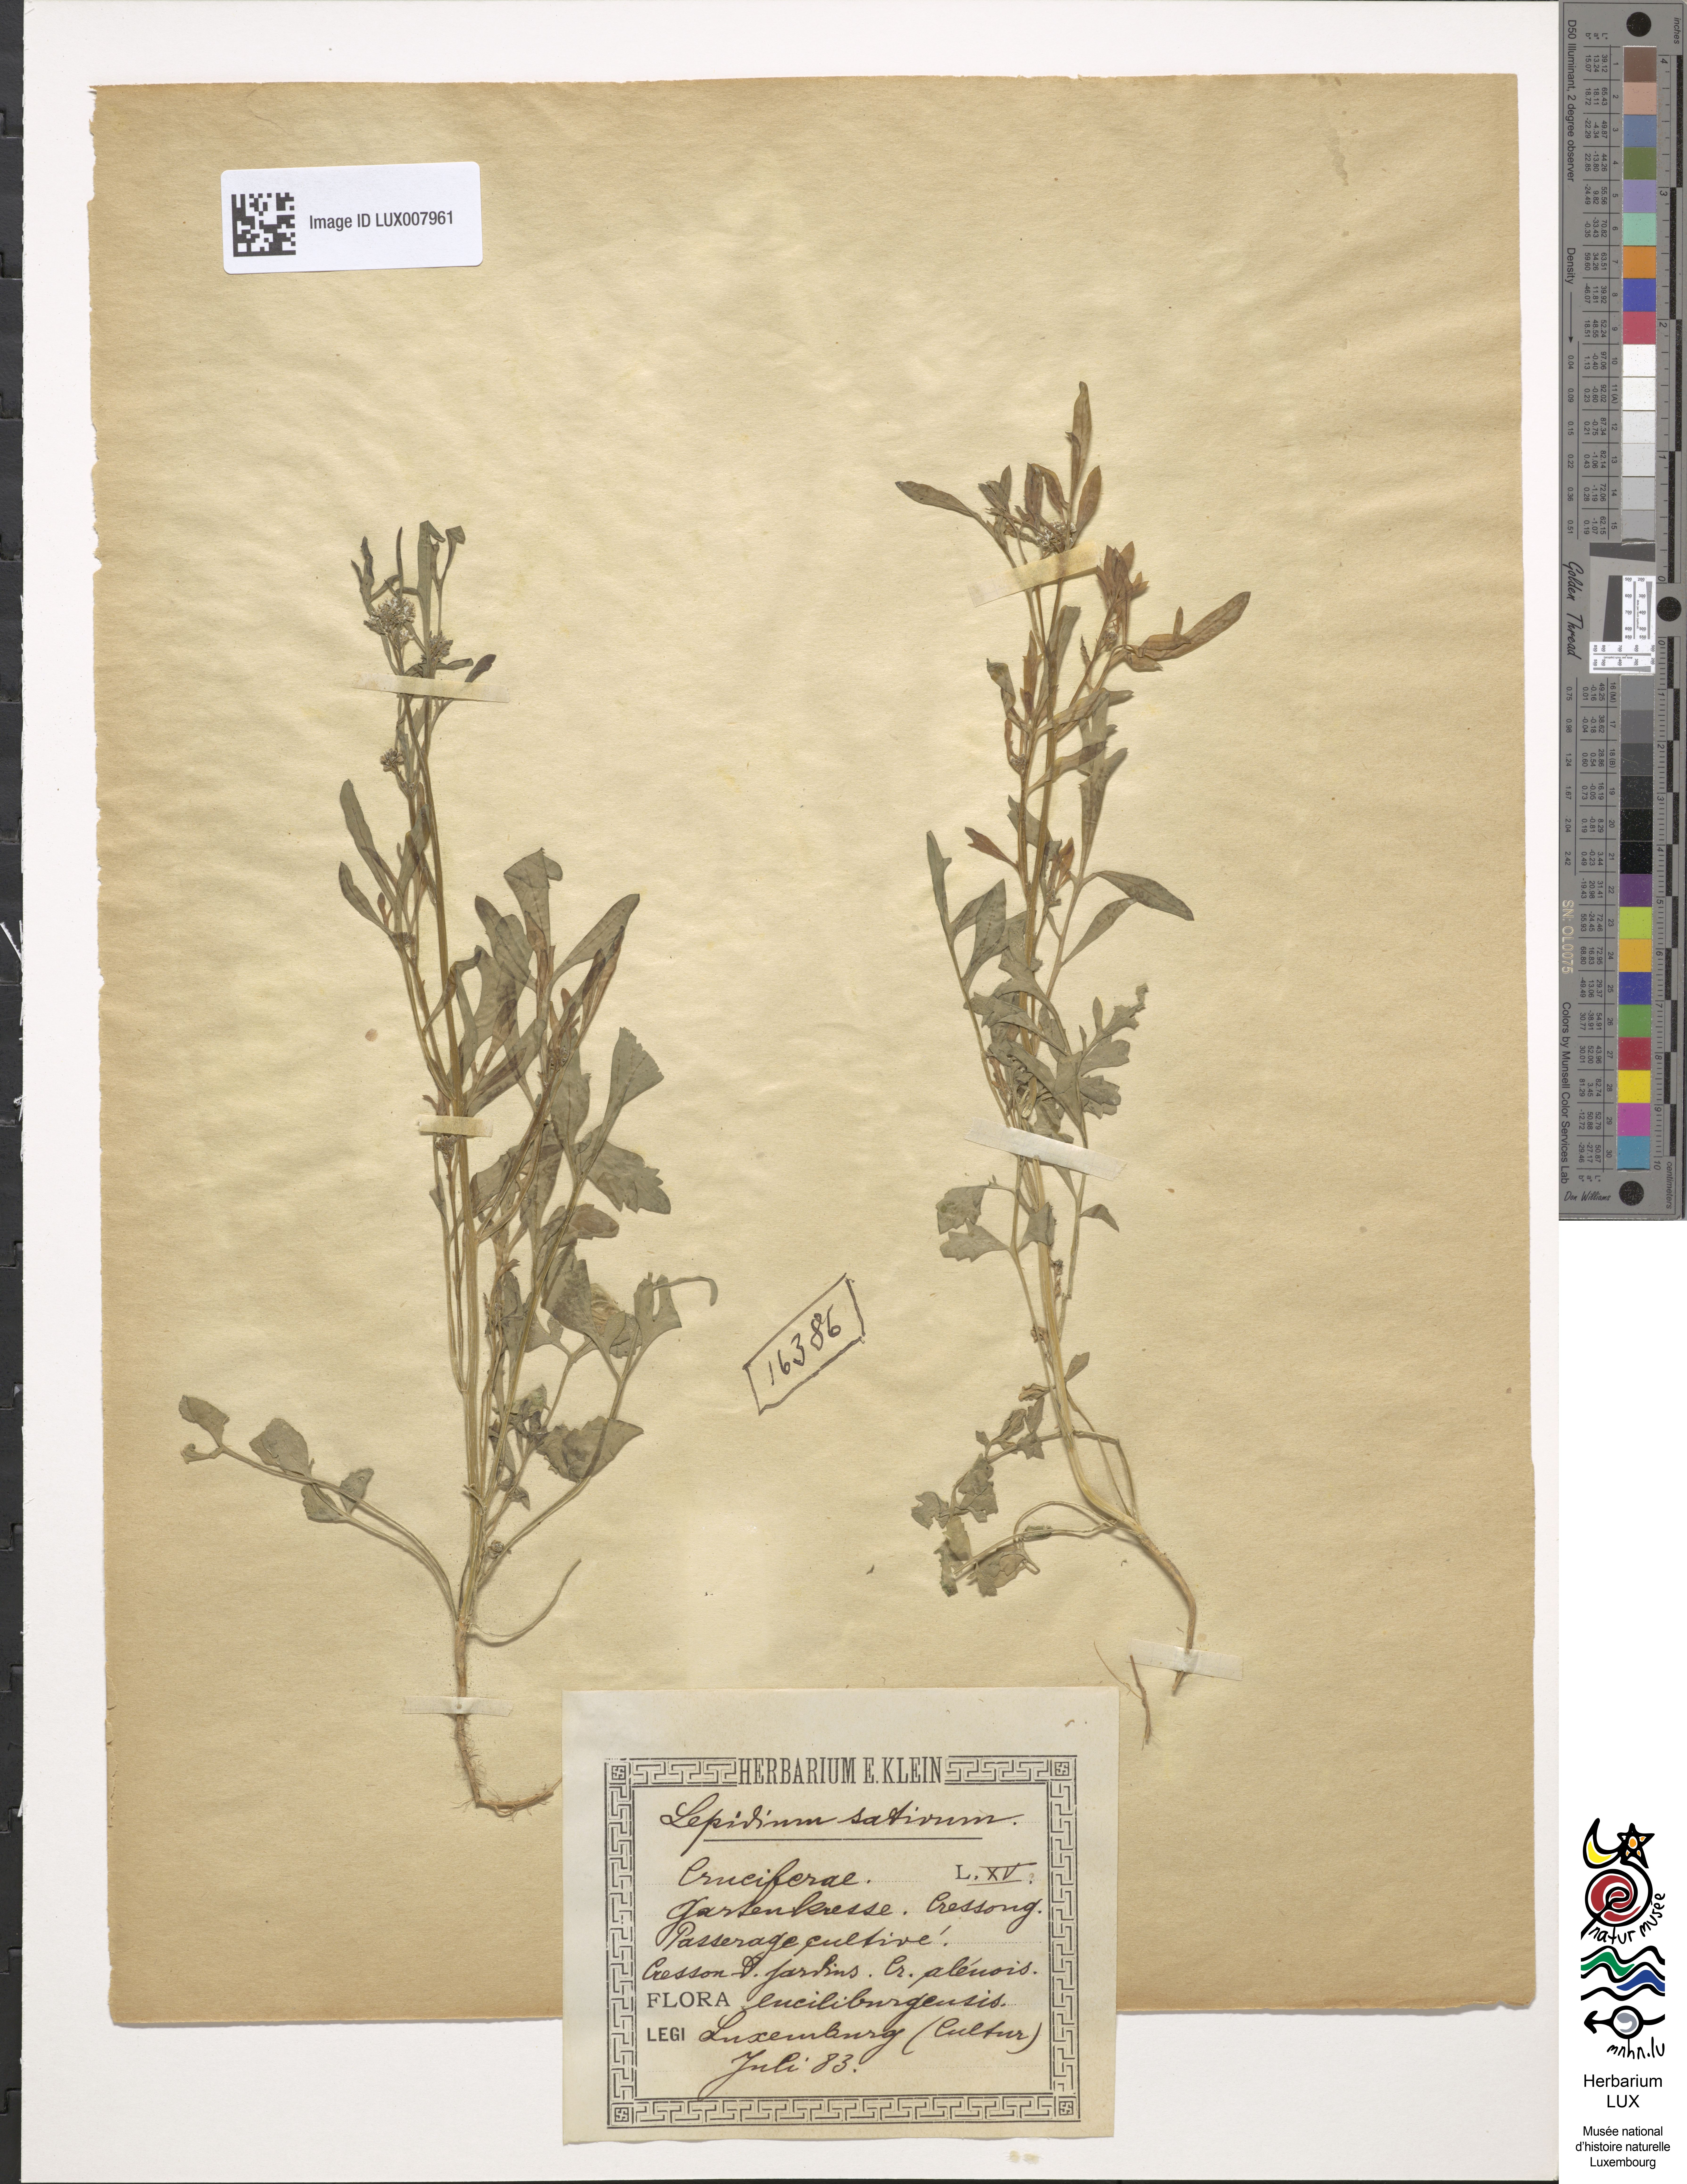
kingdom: Plantae
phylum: Tracheophyta
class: Magnoliopsida
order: Brassicales
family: Brassicaceae
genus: Lepidium
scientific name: Lepidium sativum
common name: Garden cress
